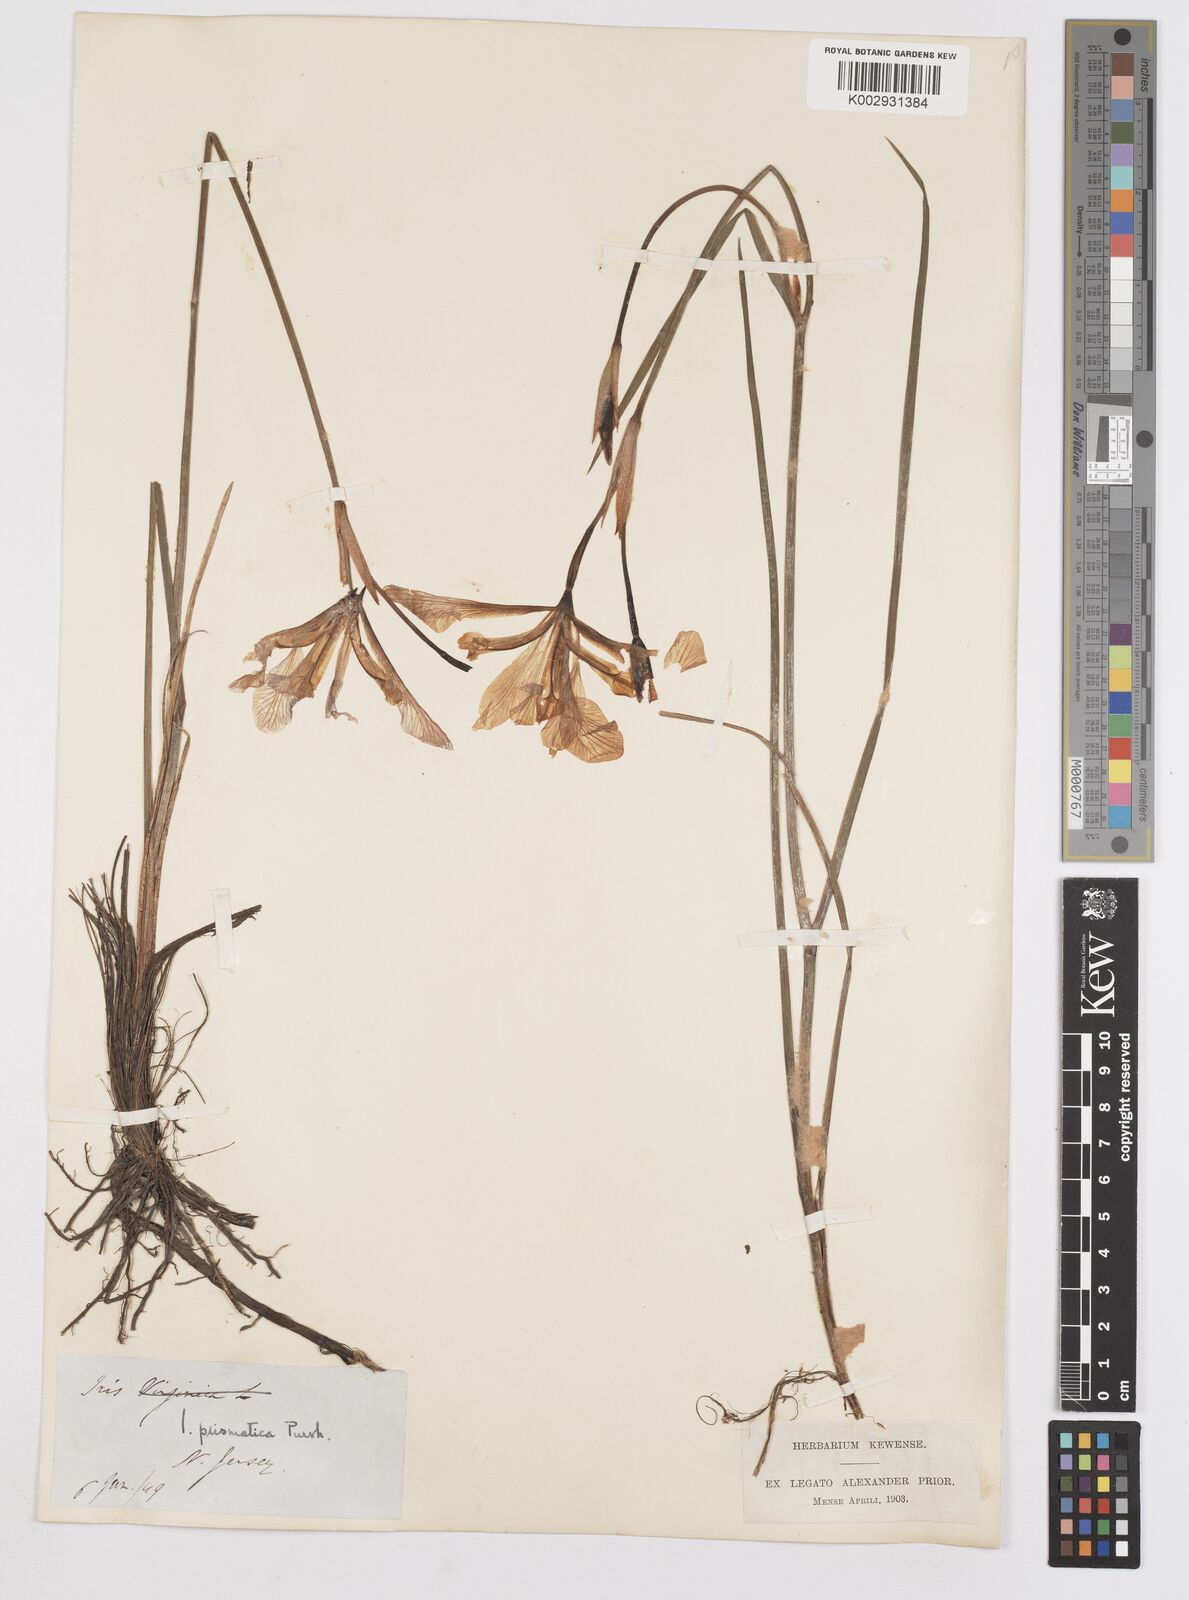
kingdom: Plantae
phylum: Tracheophyta
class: Liliopsida
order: Asparagales
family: Iridaceae
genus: Iris
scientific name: Iris prismatica
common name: Slender blue flag
